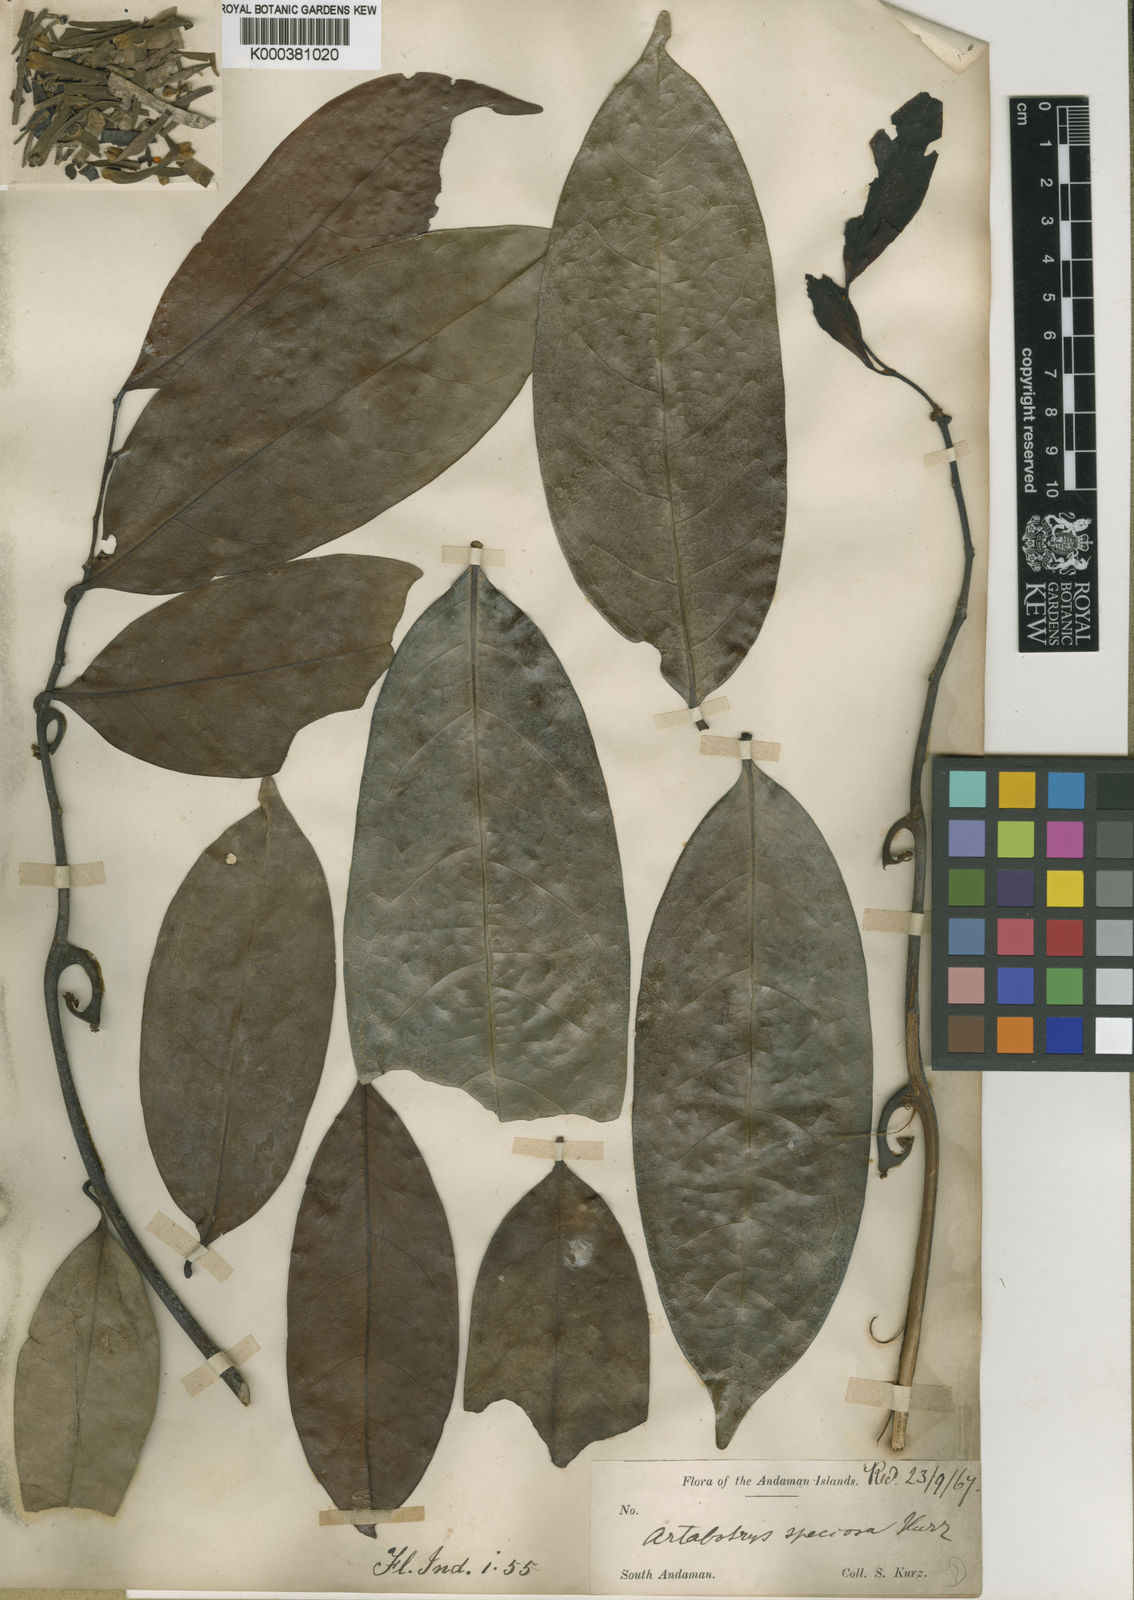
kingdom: Plantae
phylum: Tracheophyta
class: Magnoliopsida
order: Magnoliales
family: Annonaceae
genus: Artabotrys
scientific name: Artabotrys speciosus
